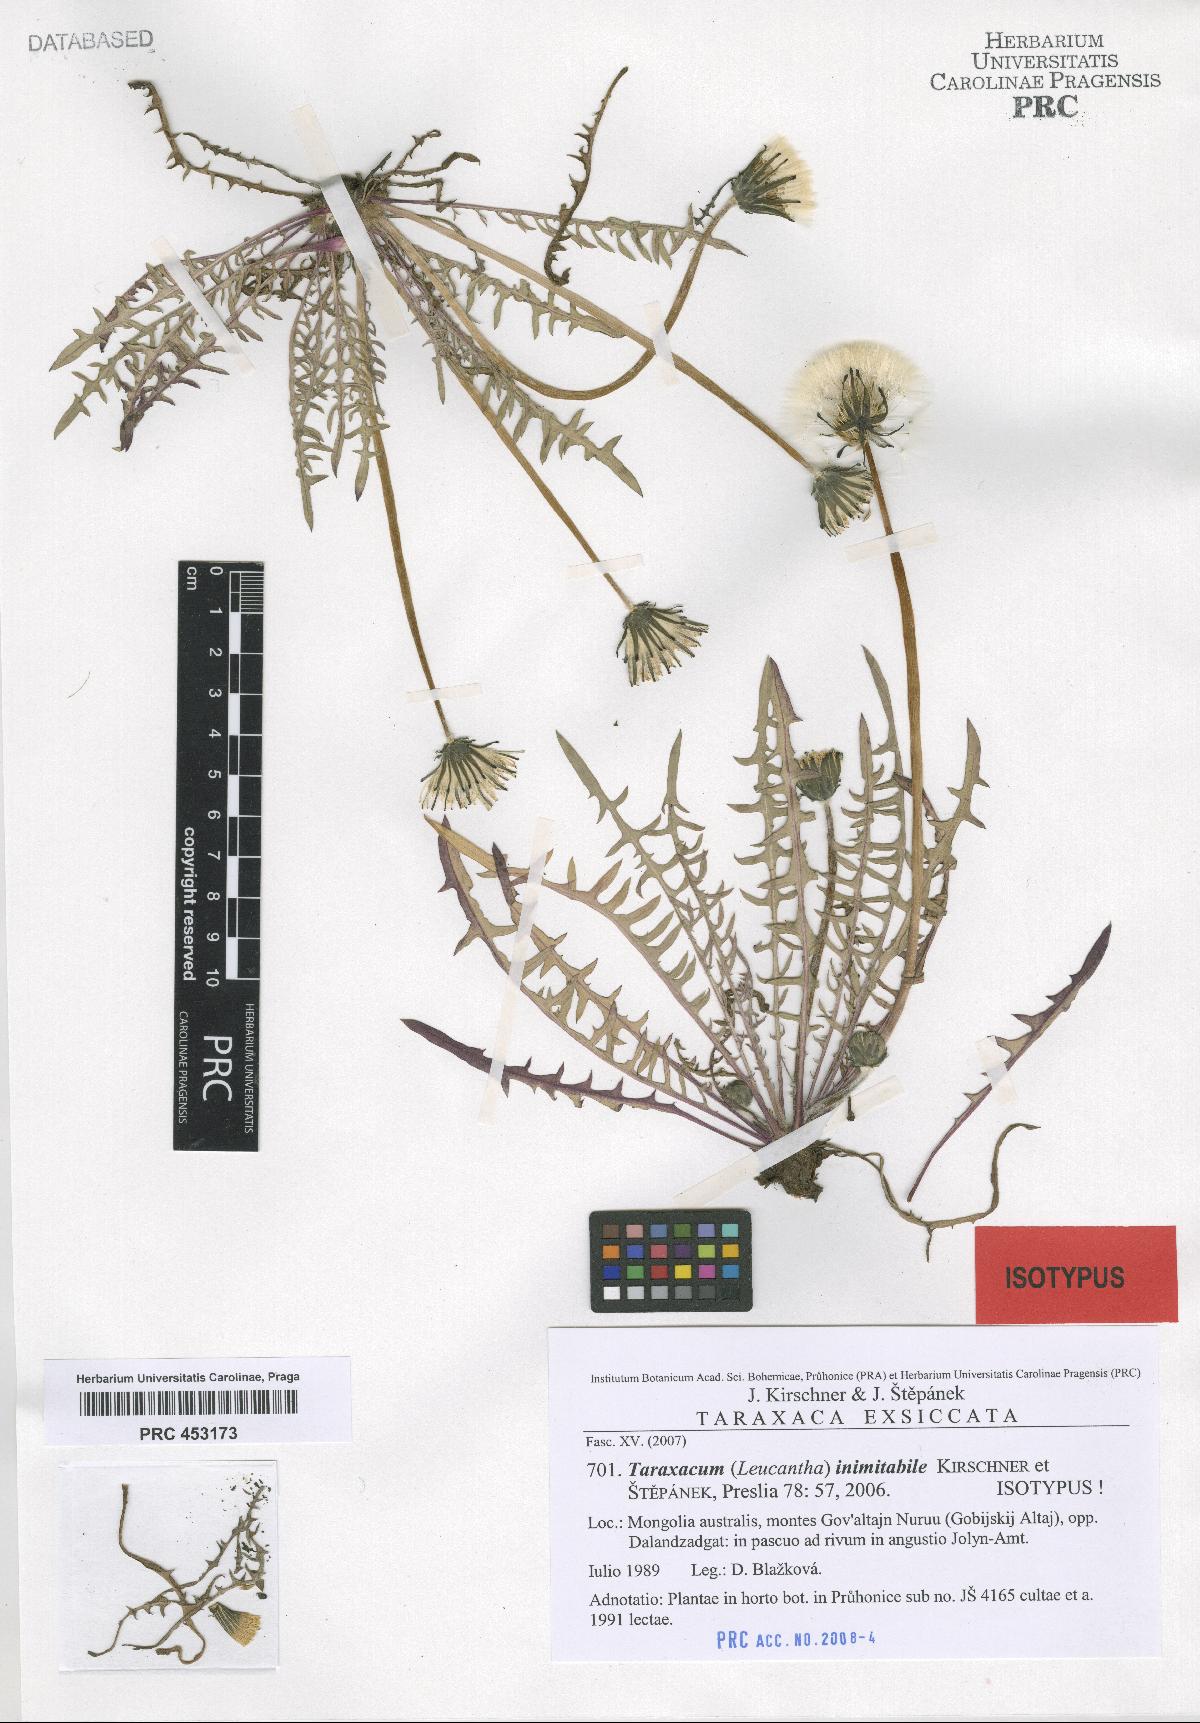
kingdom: Plantae
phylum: Tracheophyta
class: Magnoliopsida
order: Asterales
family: Asteraceae
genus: Taraxacum
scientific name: Taraxacum inimitabile
